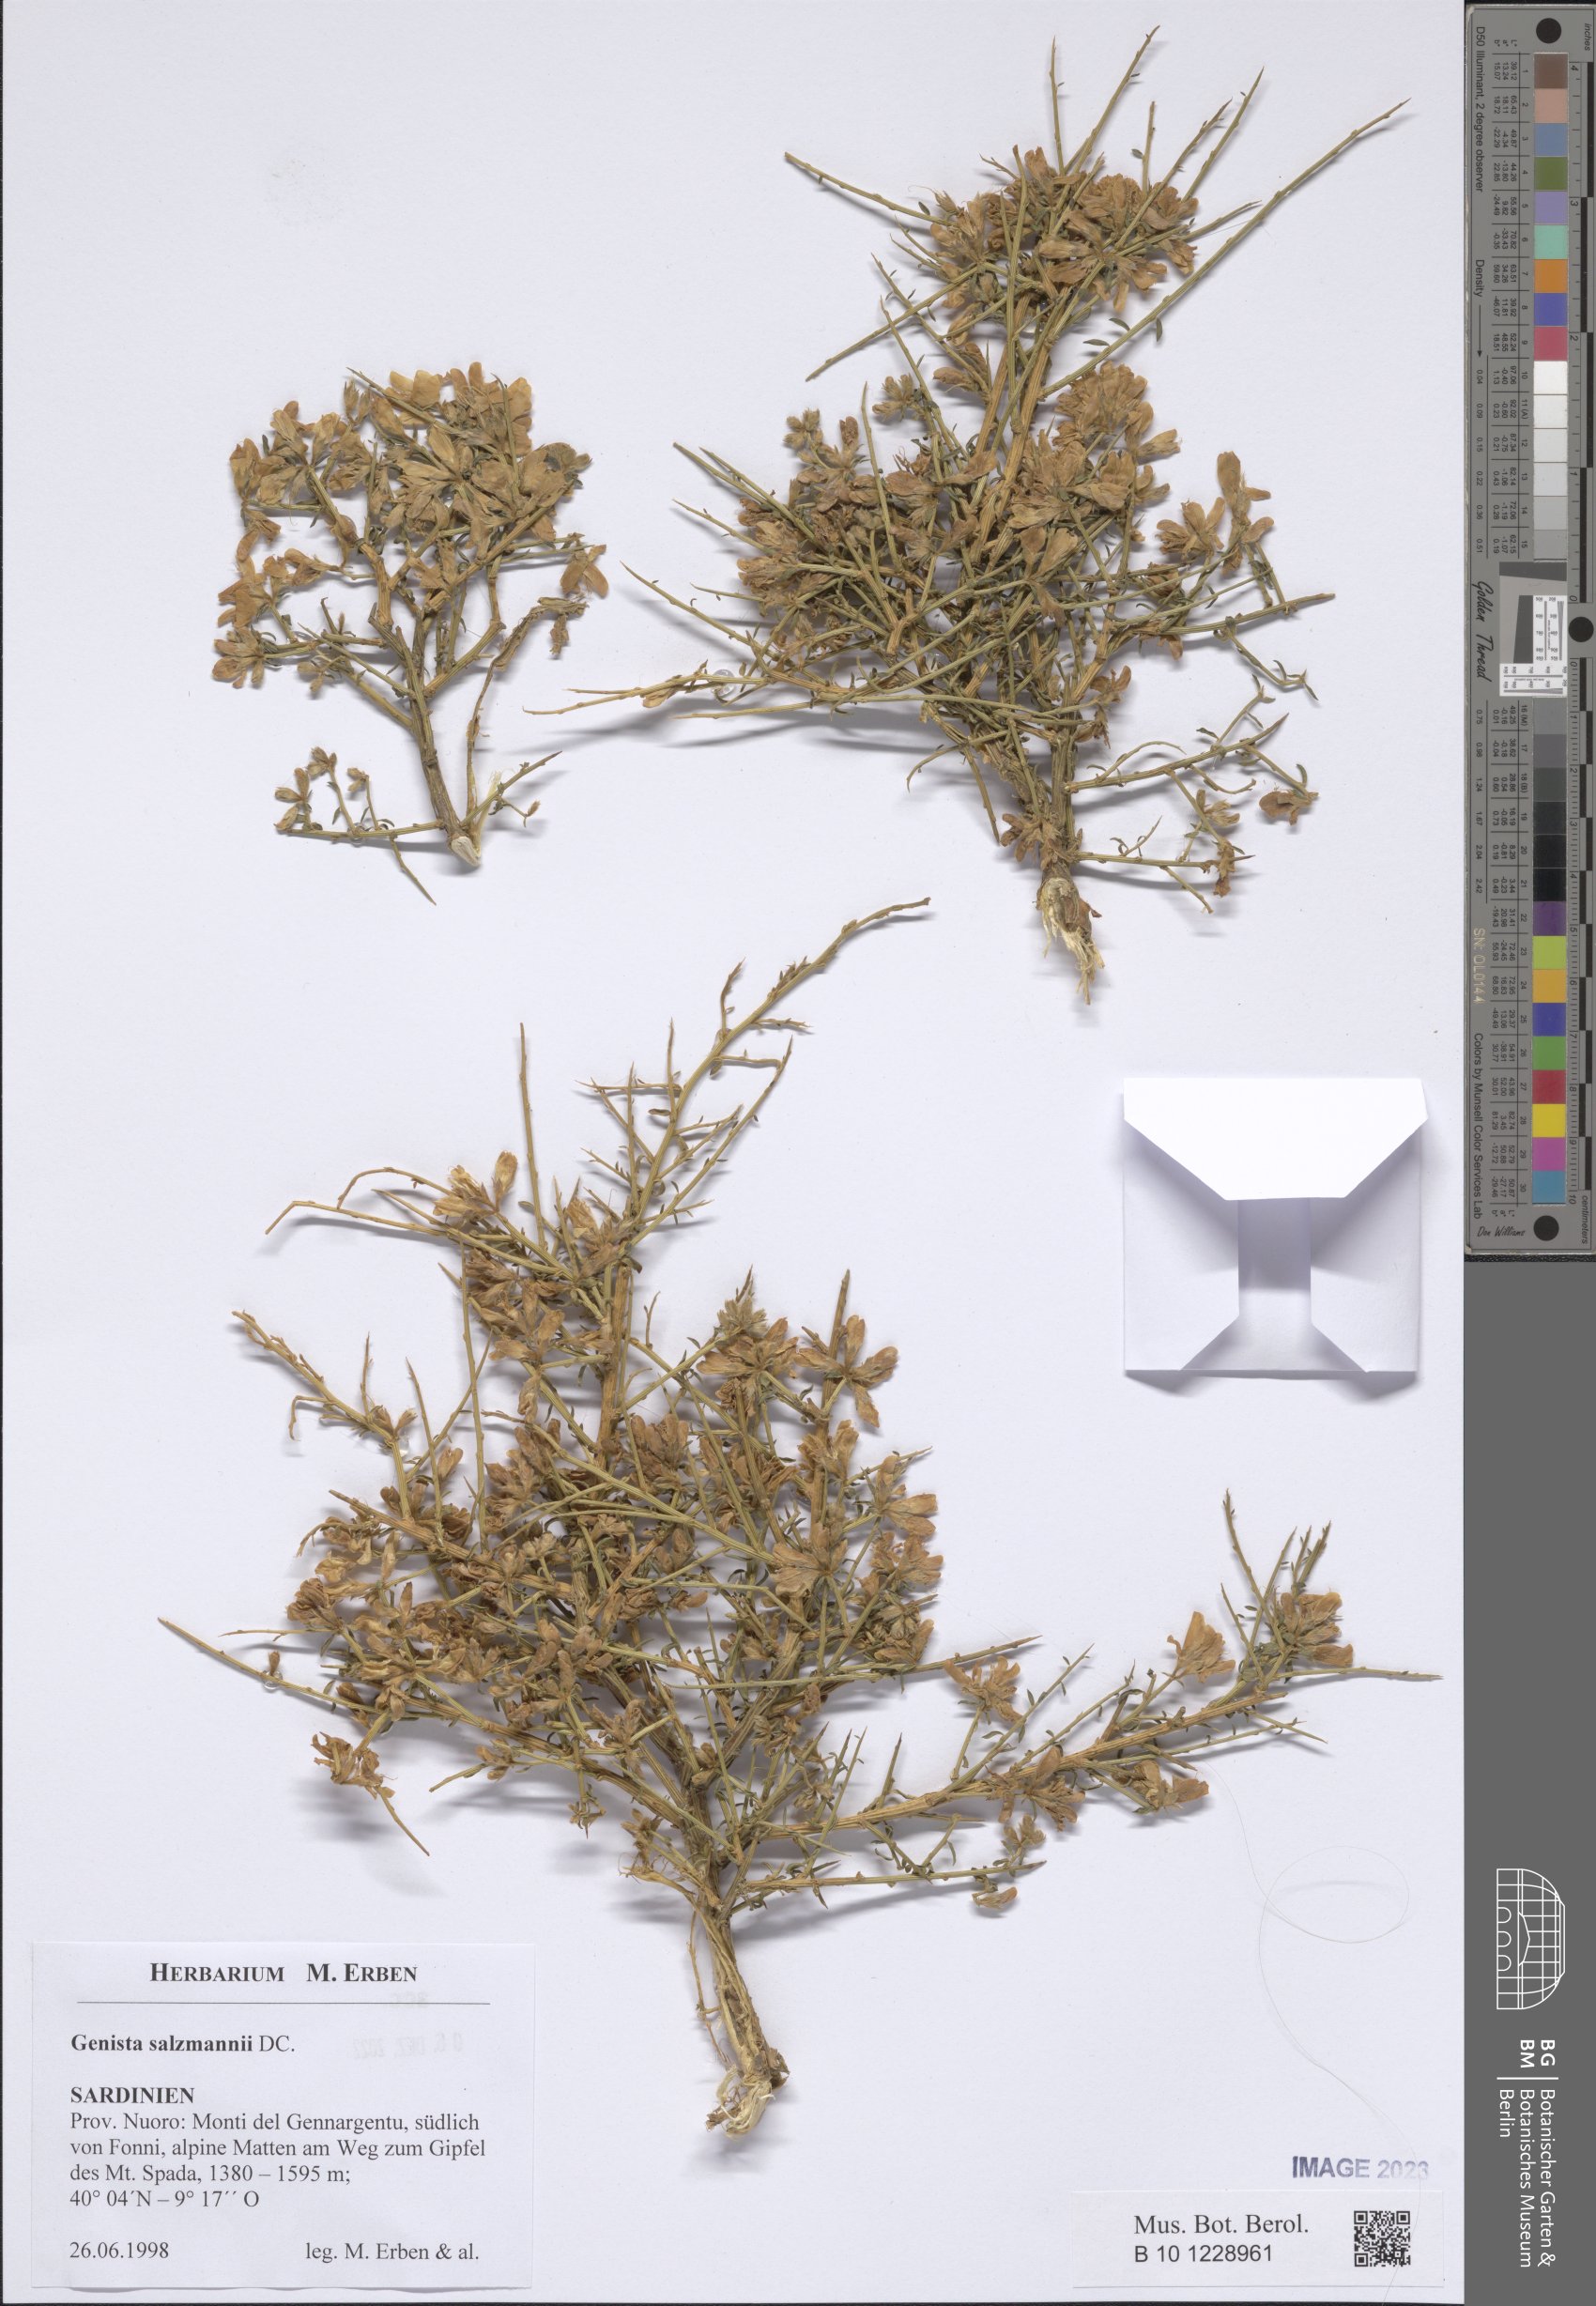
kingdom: Plantae
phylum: Tracheophyta
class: Magnoliopsida
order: Fabales
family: Fabaceae
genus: Genista
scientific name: Genista salzmannii
